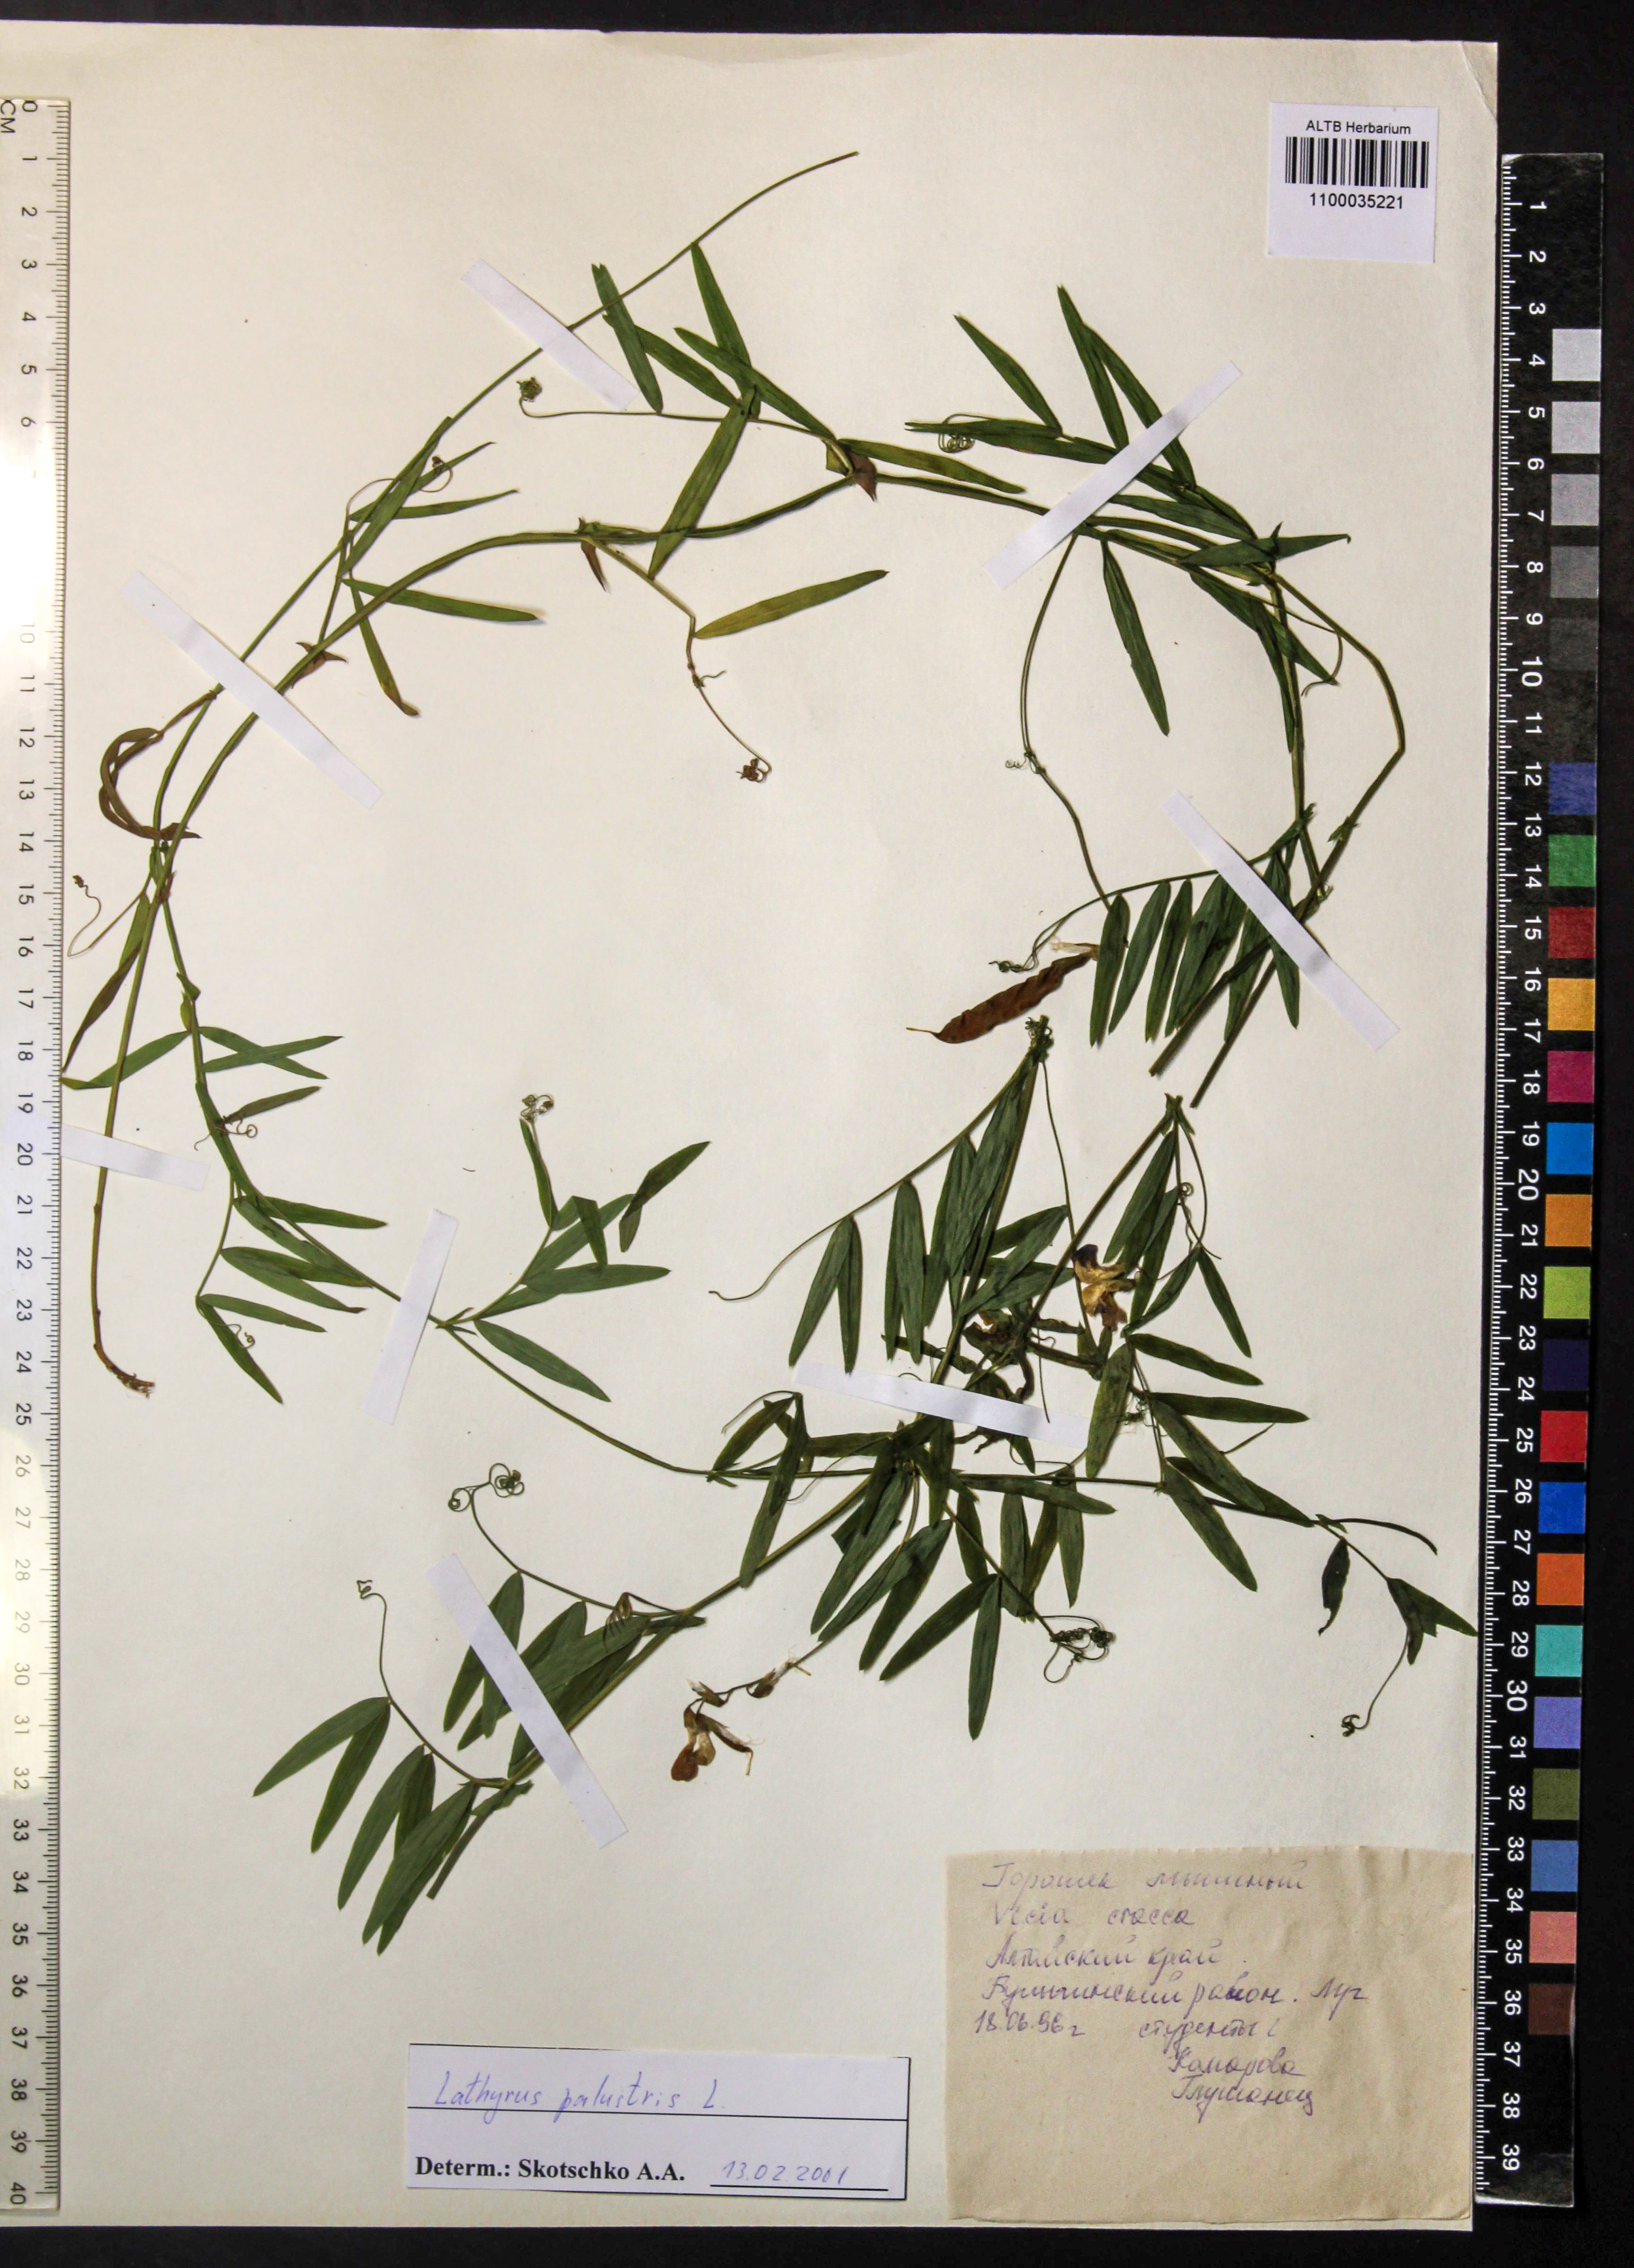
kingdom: Plantae
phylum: Tracheophyta
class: Magnoliopsida
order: Fabales
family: Fabaceae
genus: Lathyrus
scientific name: Lathyrus palustris
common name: Marsh pea
